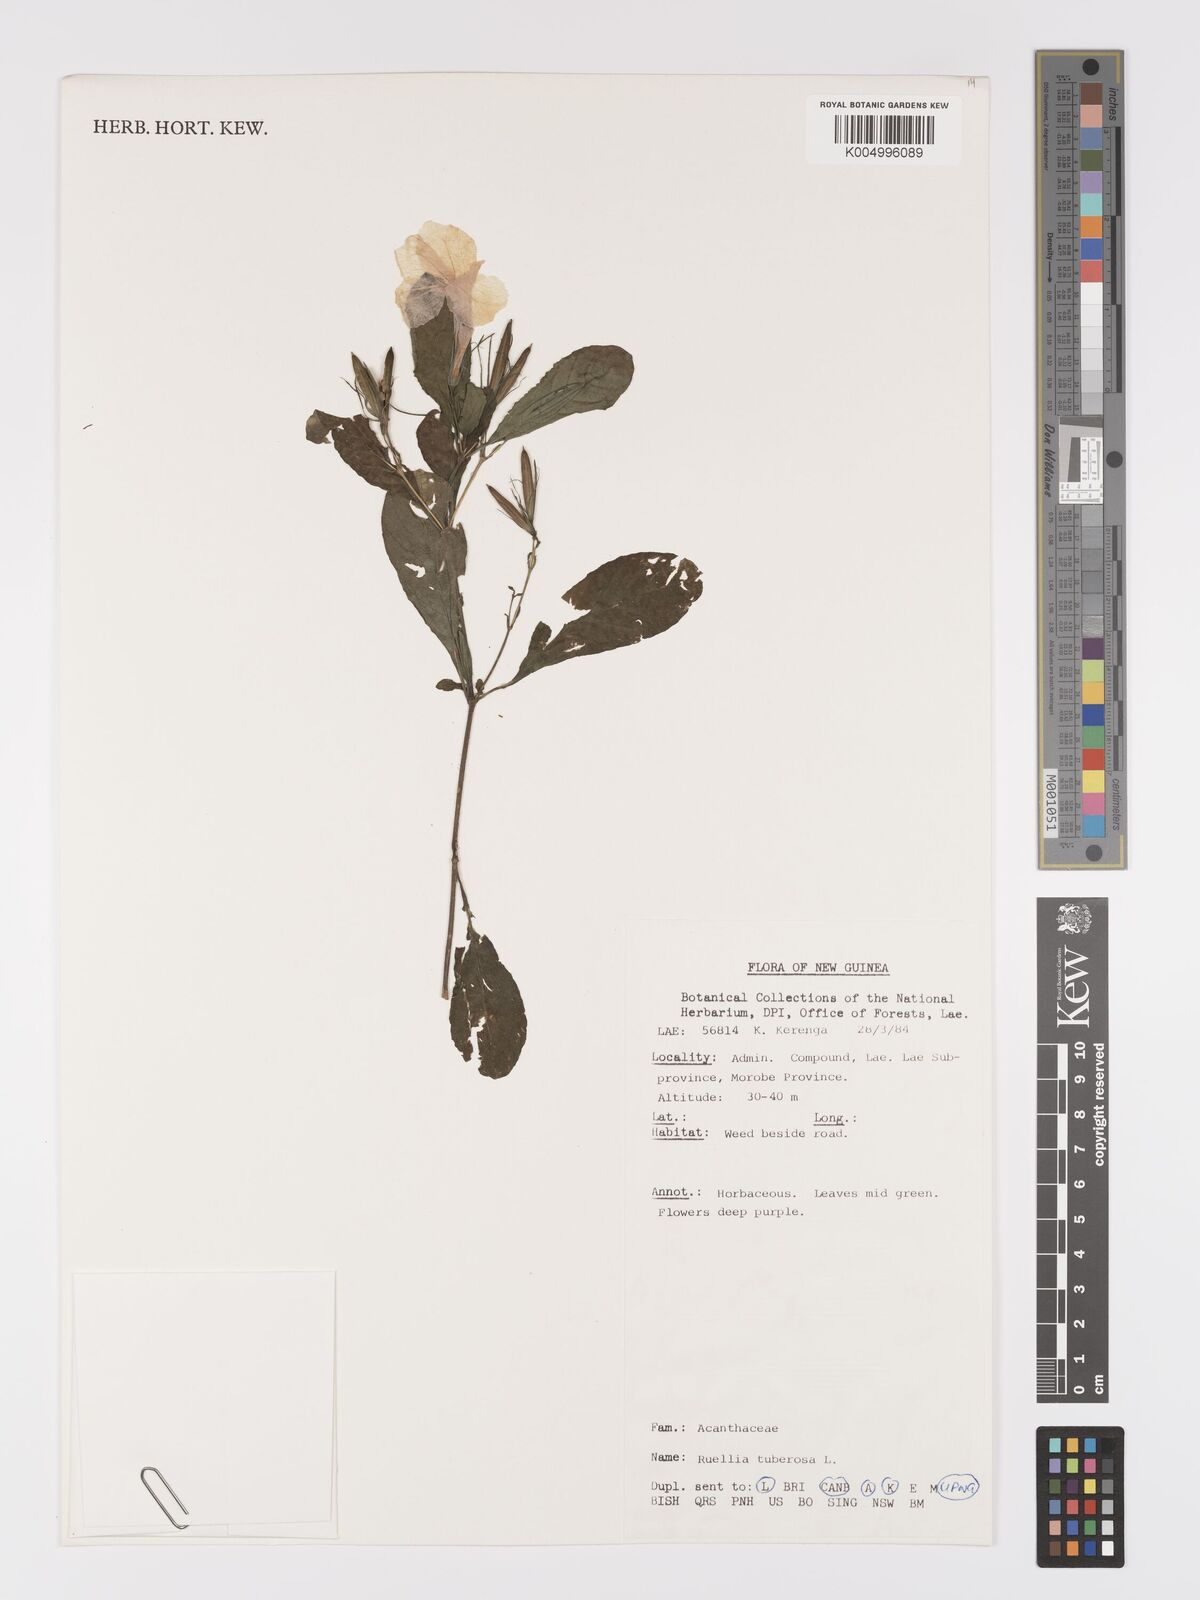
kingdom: Plantae
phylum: Tracheophyta
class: Magnoliopsida
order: Lamiales
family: Acanthaceae
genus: Ruellia
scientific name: Ruellia tuberosa
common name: Devil's bit
